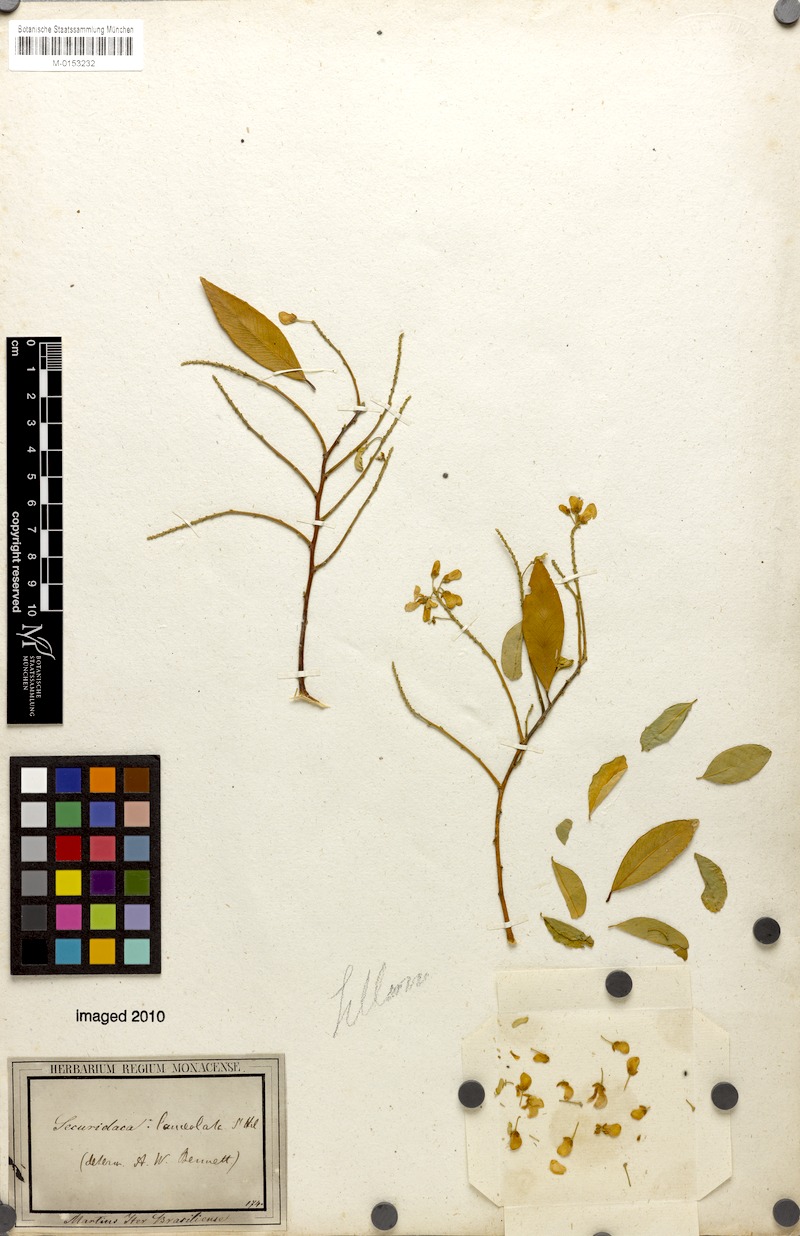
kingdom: Plantae
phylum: Tracheophyta
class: Magnoliopsida
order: Fabales
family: Polygalaceae
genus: Securidaca
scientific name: Securidaca lanceolata
